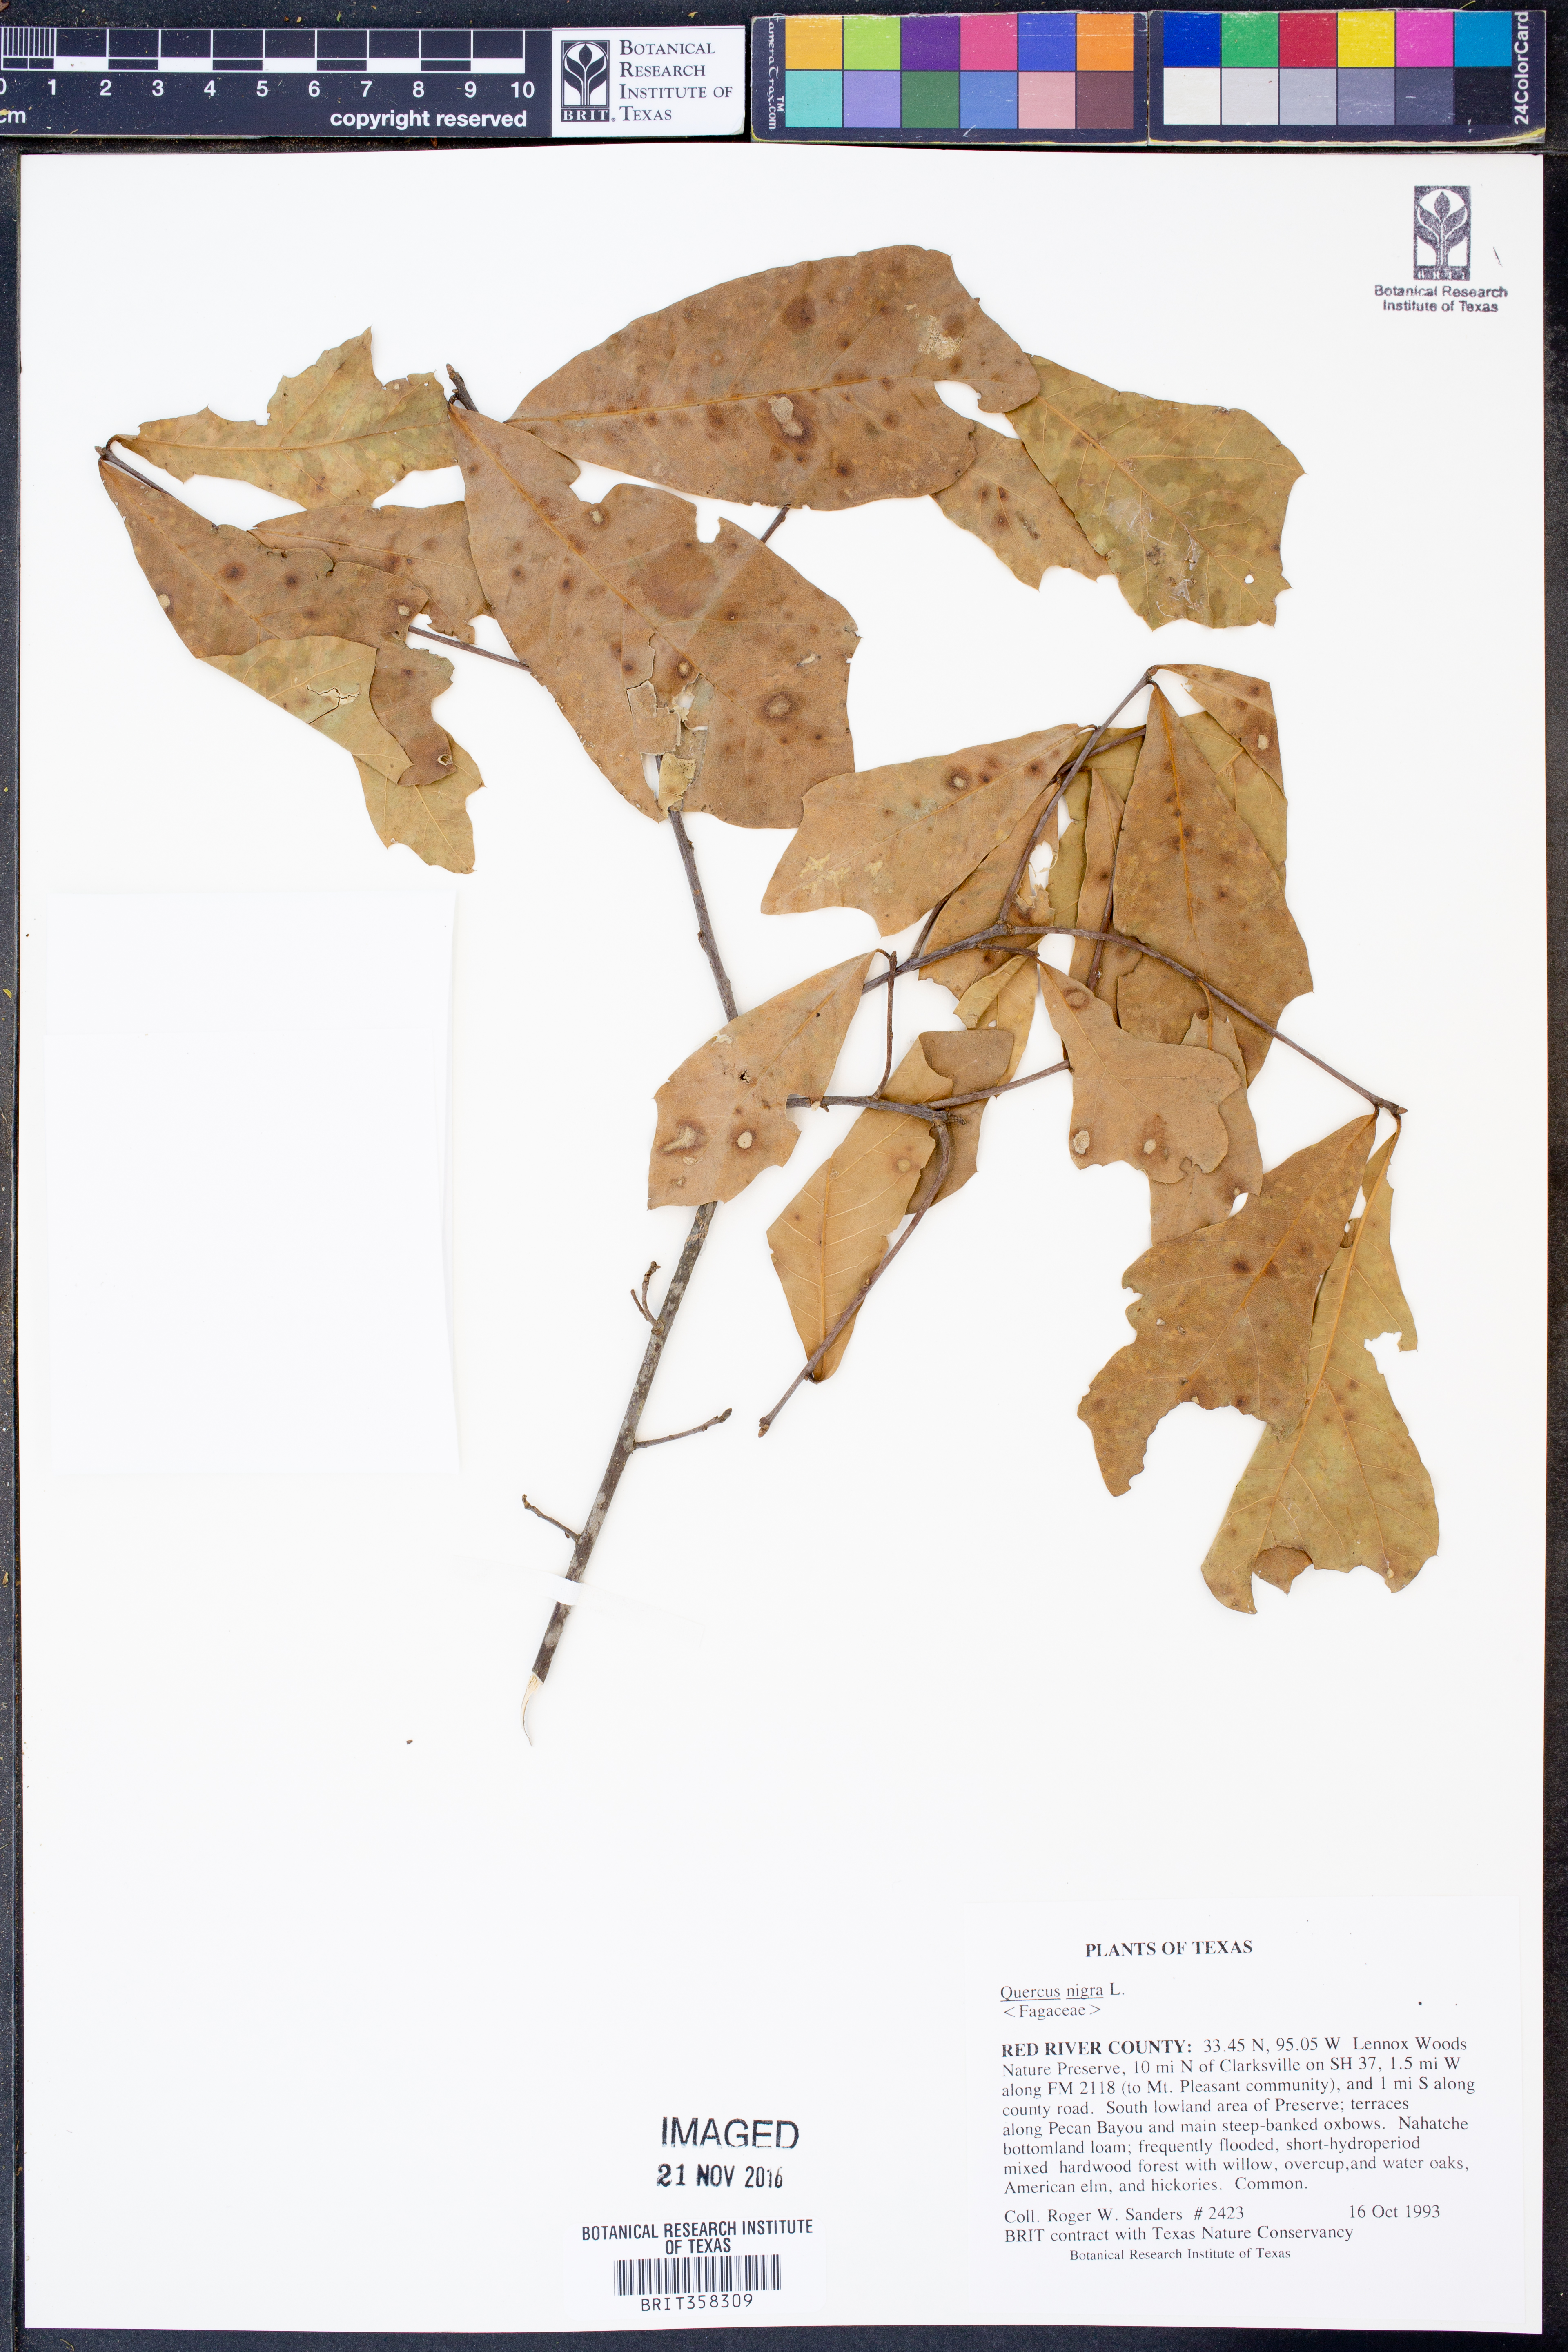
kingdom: Plantae
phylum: Tracheophyta
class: Magnoliopsida
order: Fagales
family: Fagaceae
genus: Quercus
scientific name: Quercus nigra
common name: Water oak
